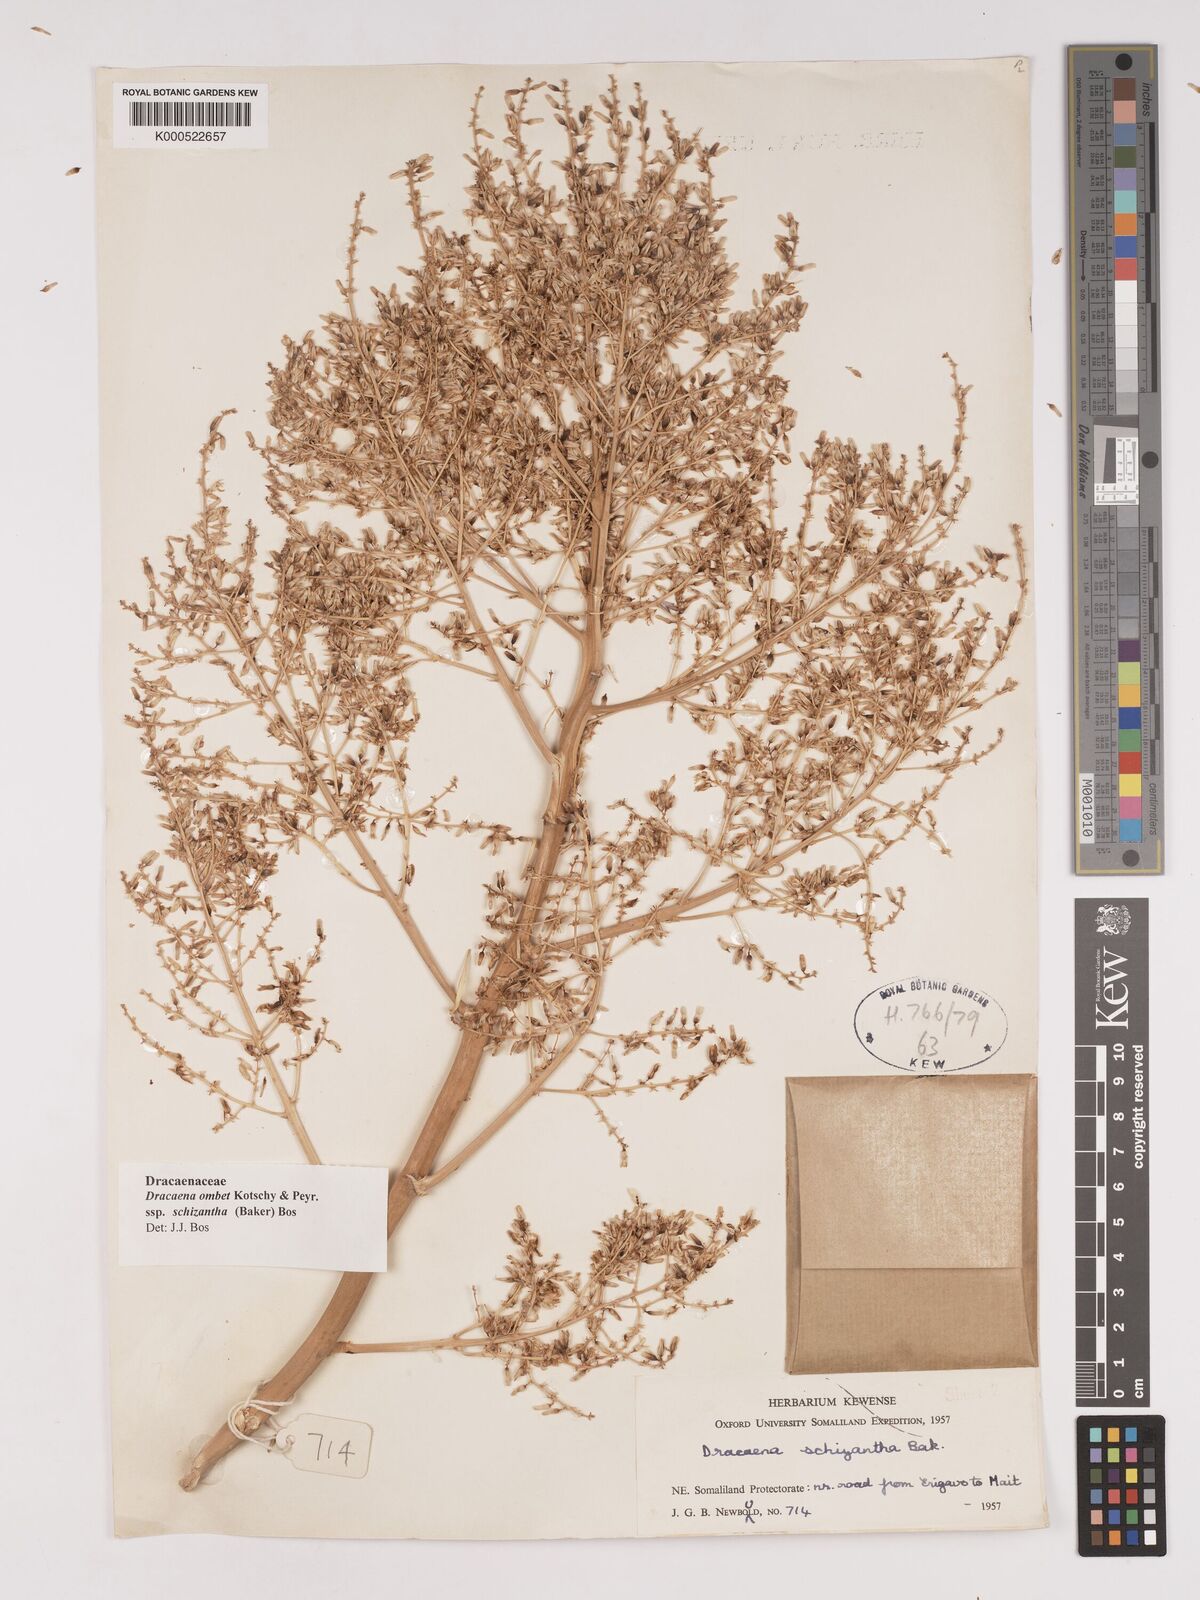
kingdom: Plantae
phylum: Tracheophyta
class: Liliopsida
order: Asparagales
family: Asparagaceae
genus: Dracaena
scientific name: Dracaena ombet
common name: Gabal elba dragon tree
